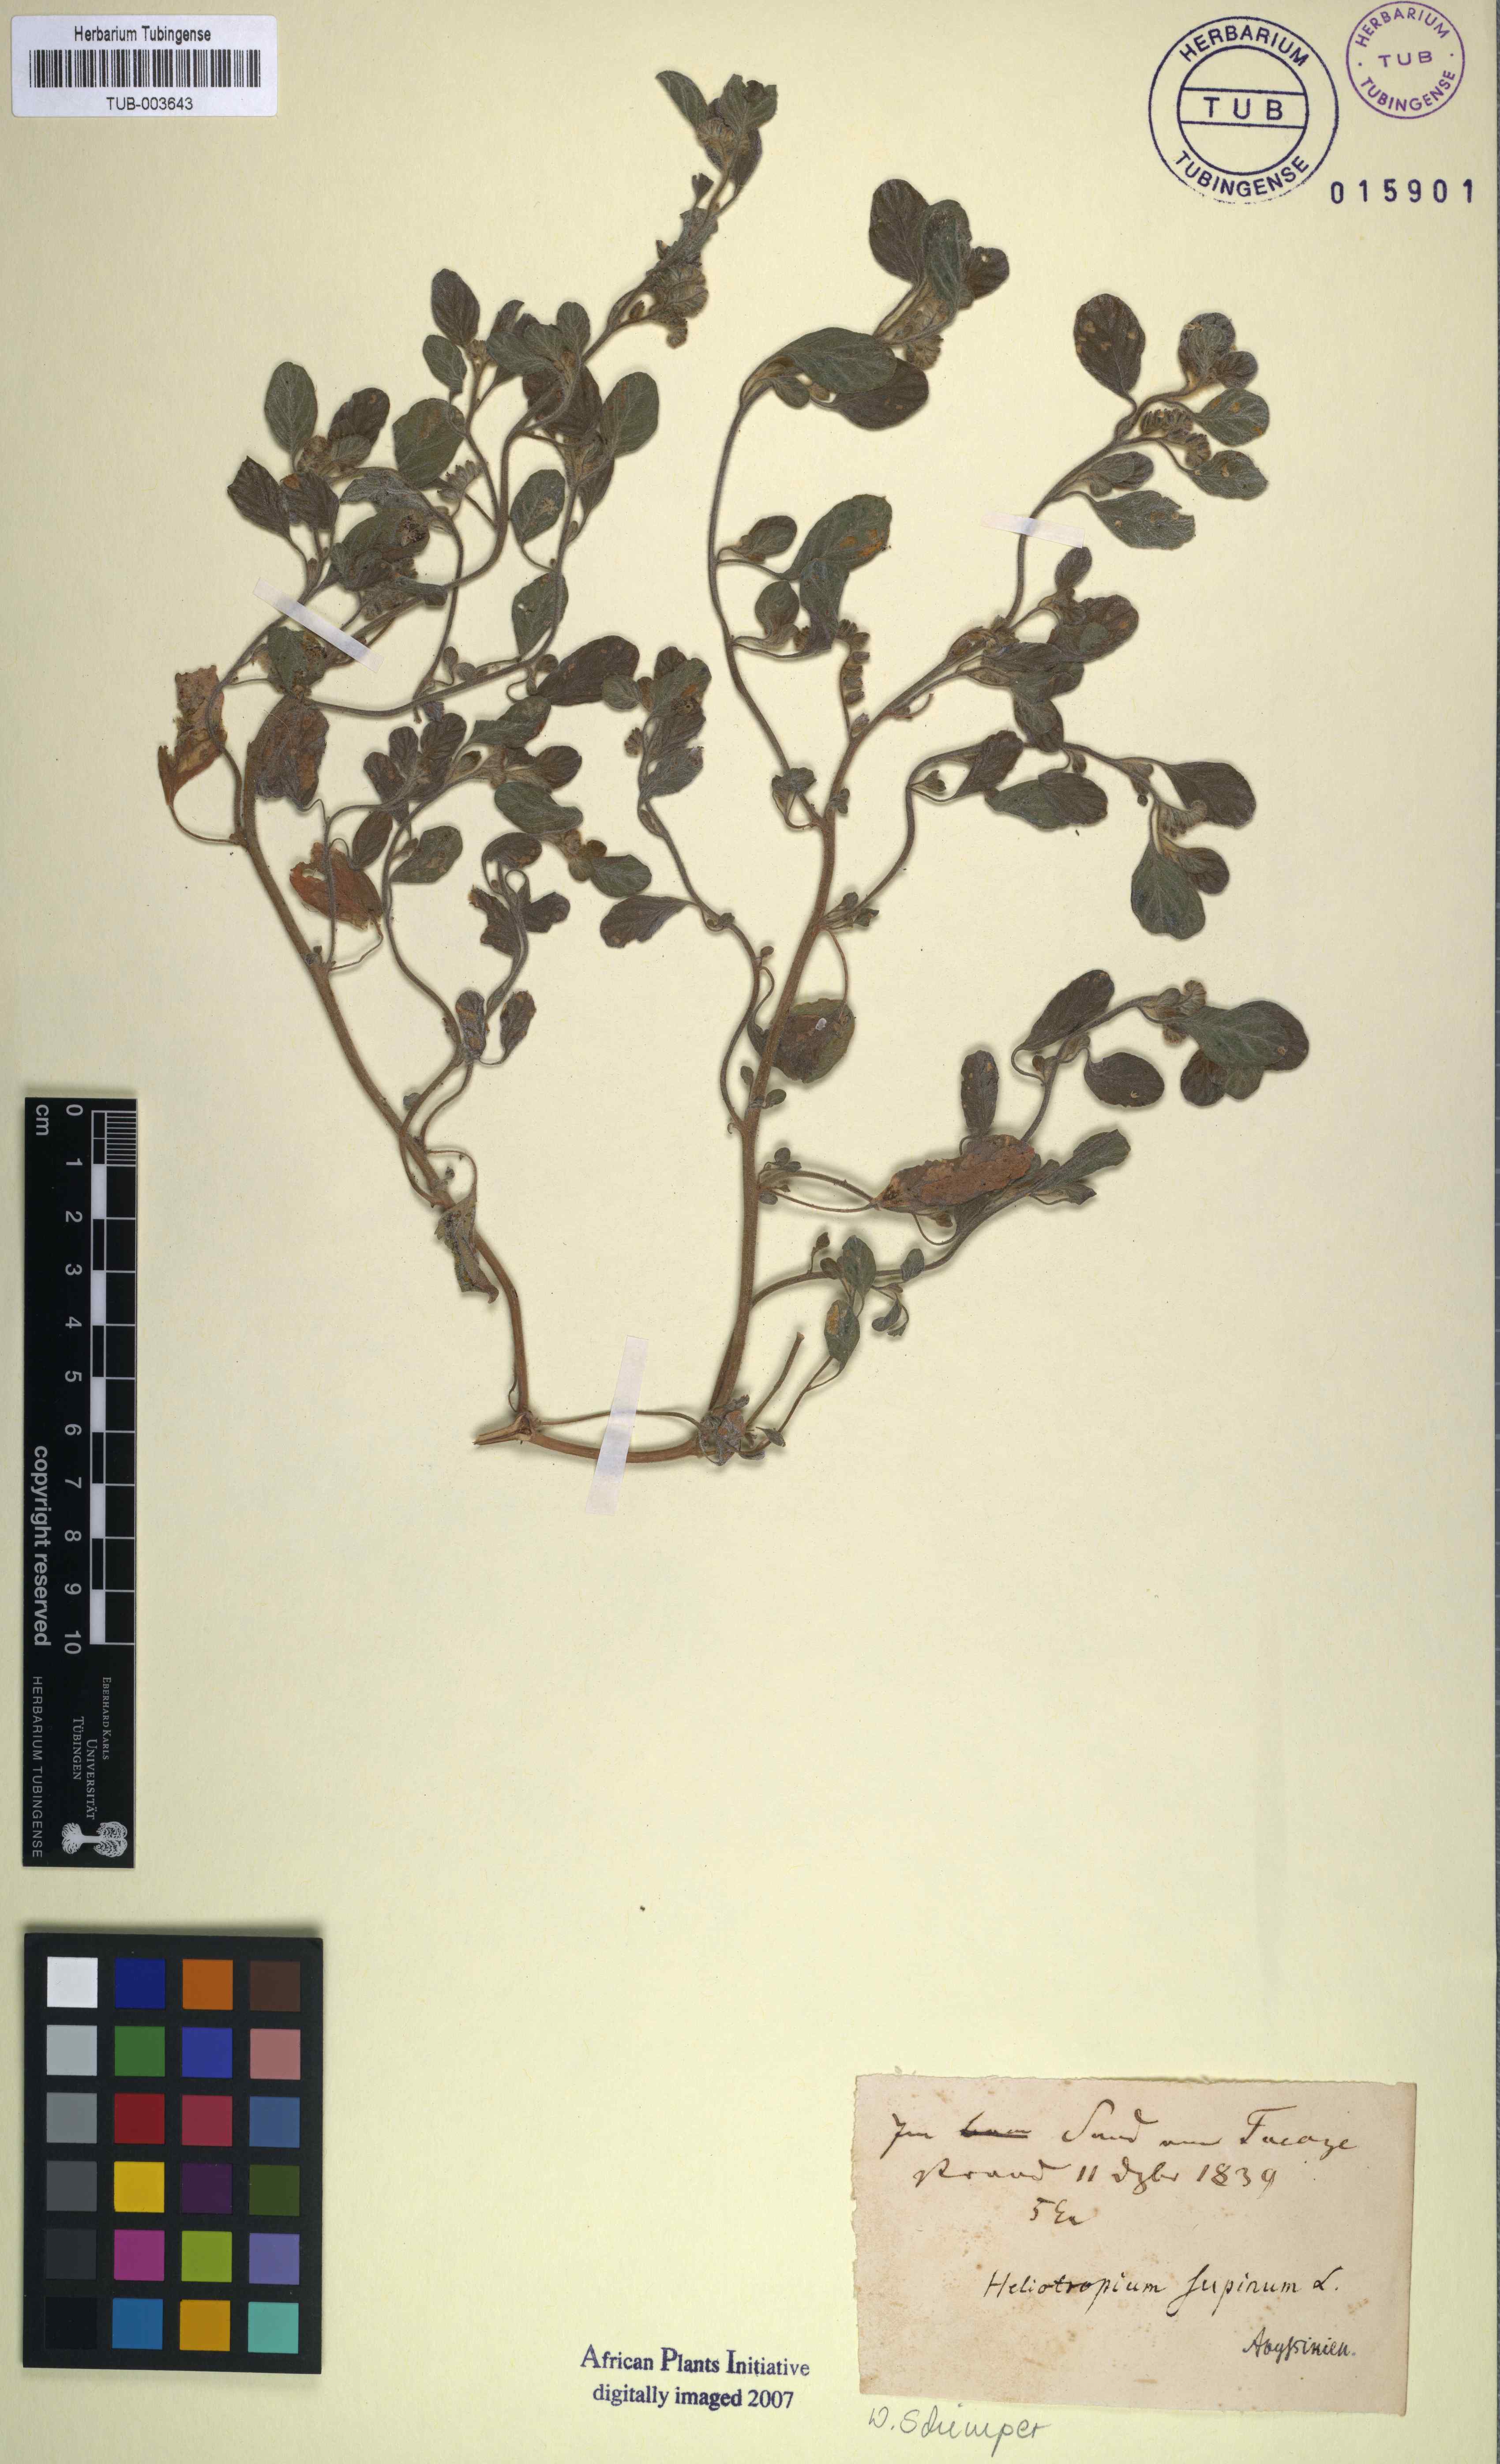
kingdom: Plantae
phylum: Tracheophyta
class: Magnoliopsida
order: Boraginales
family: Heliotropiaceae
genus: Heliotropium
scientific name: Heliotropium supinum
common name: Dwarf heliotrope
